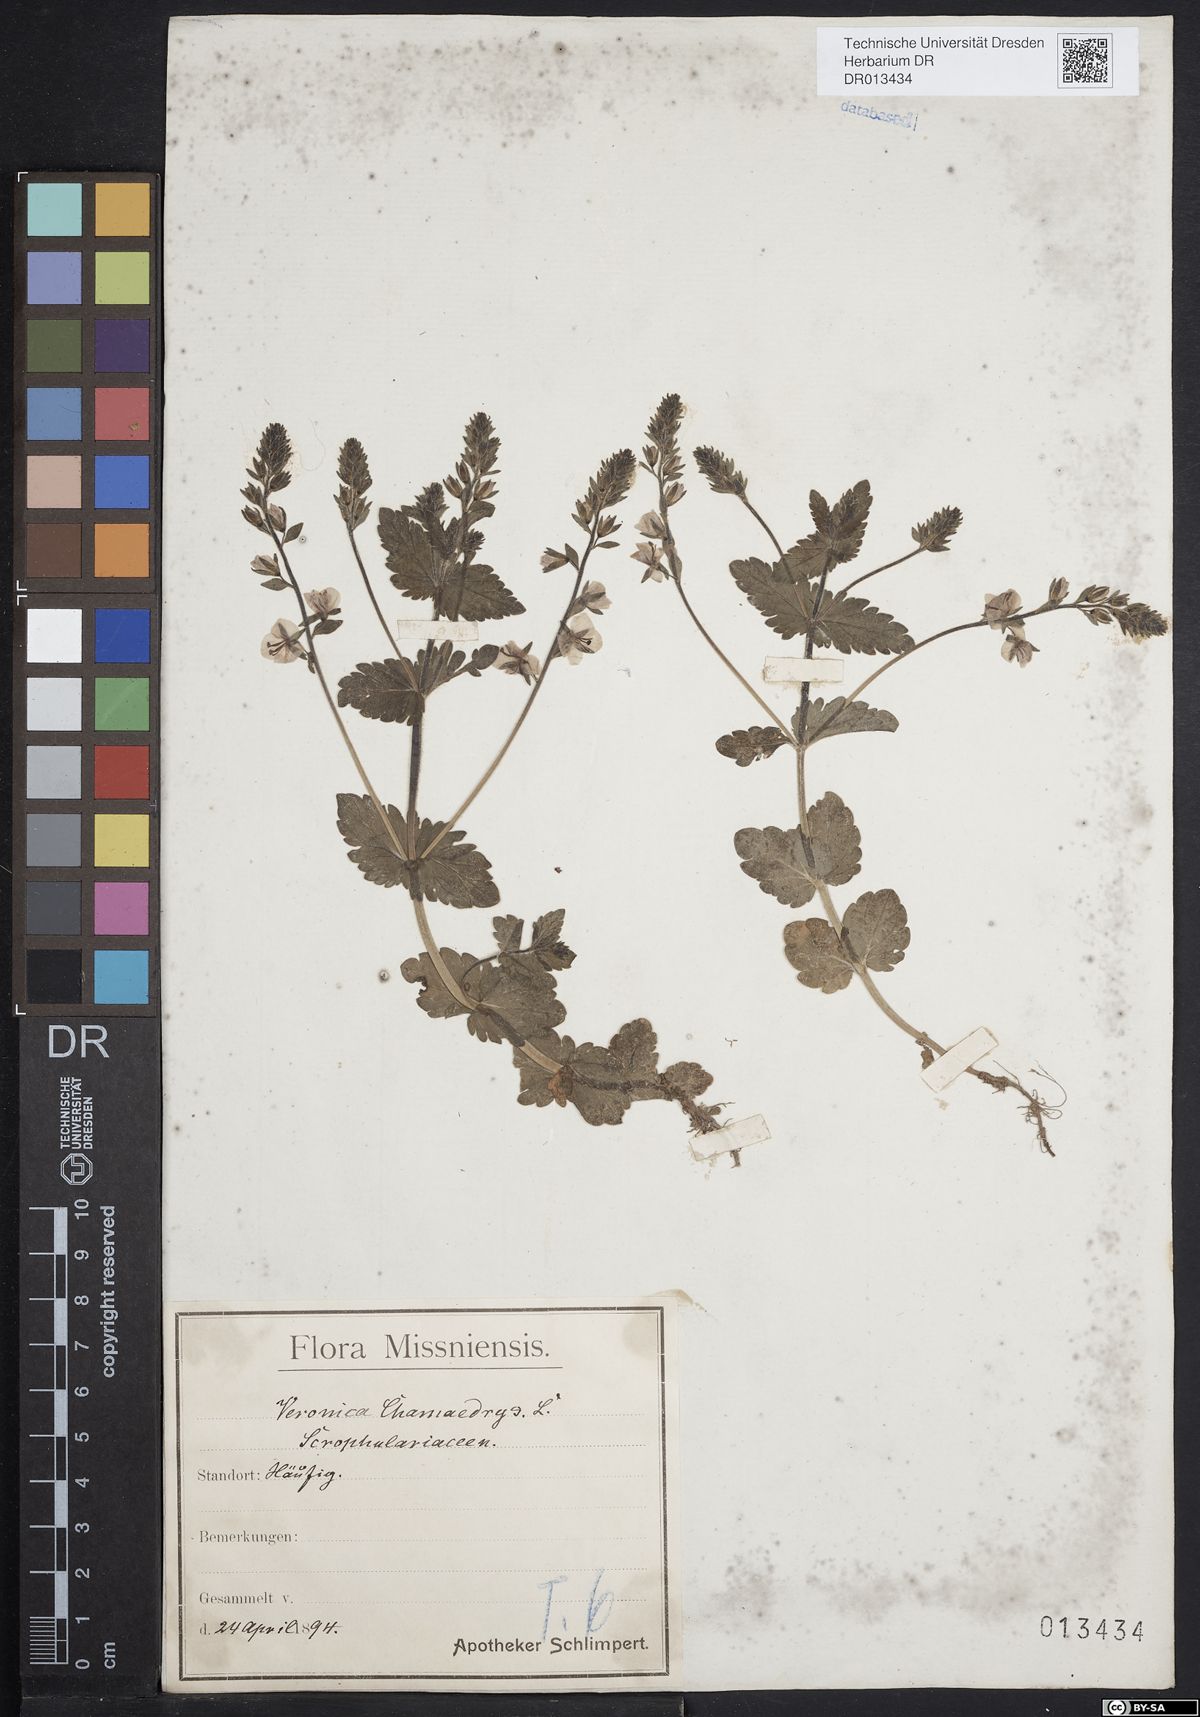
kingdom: Plantae
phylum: Tracheophyta
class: Magnoliopsida
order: Lamiales
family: Plantaginaceae
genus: Veronica
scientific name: Veronica chamaedrys
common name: Germander speedwell
